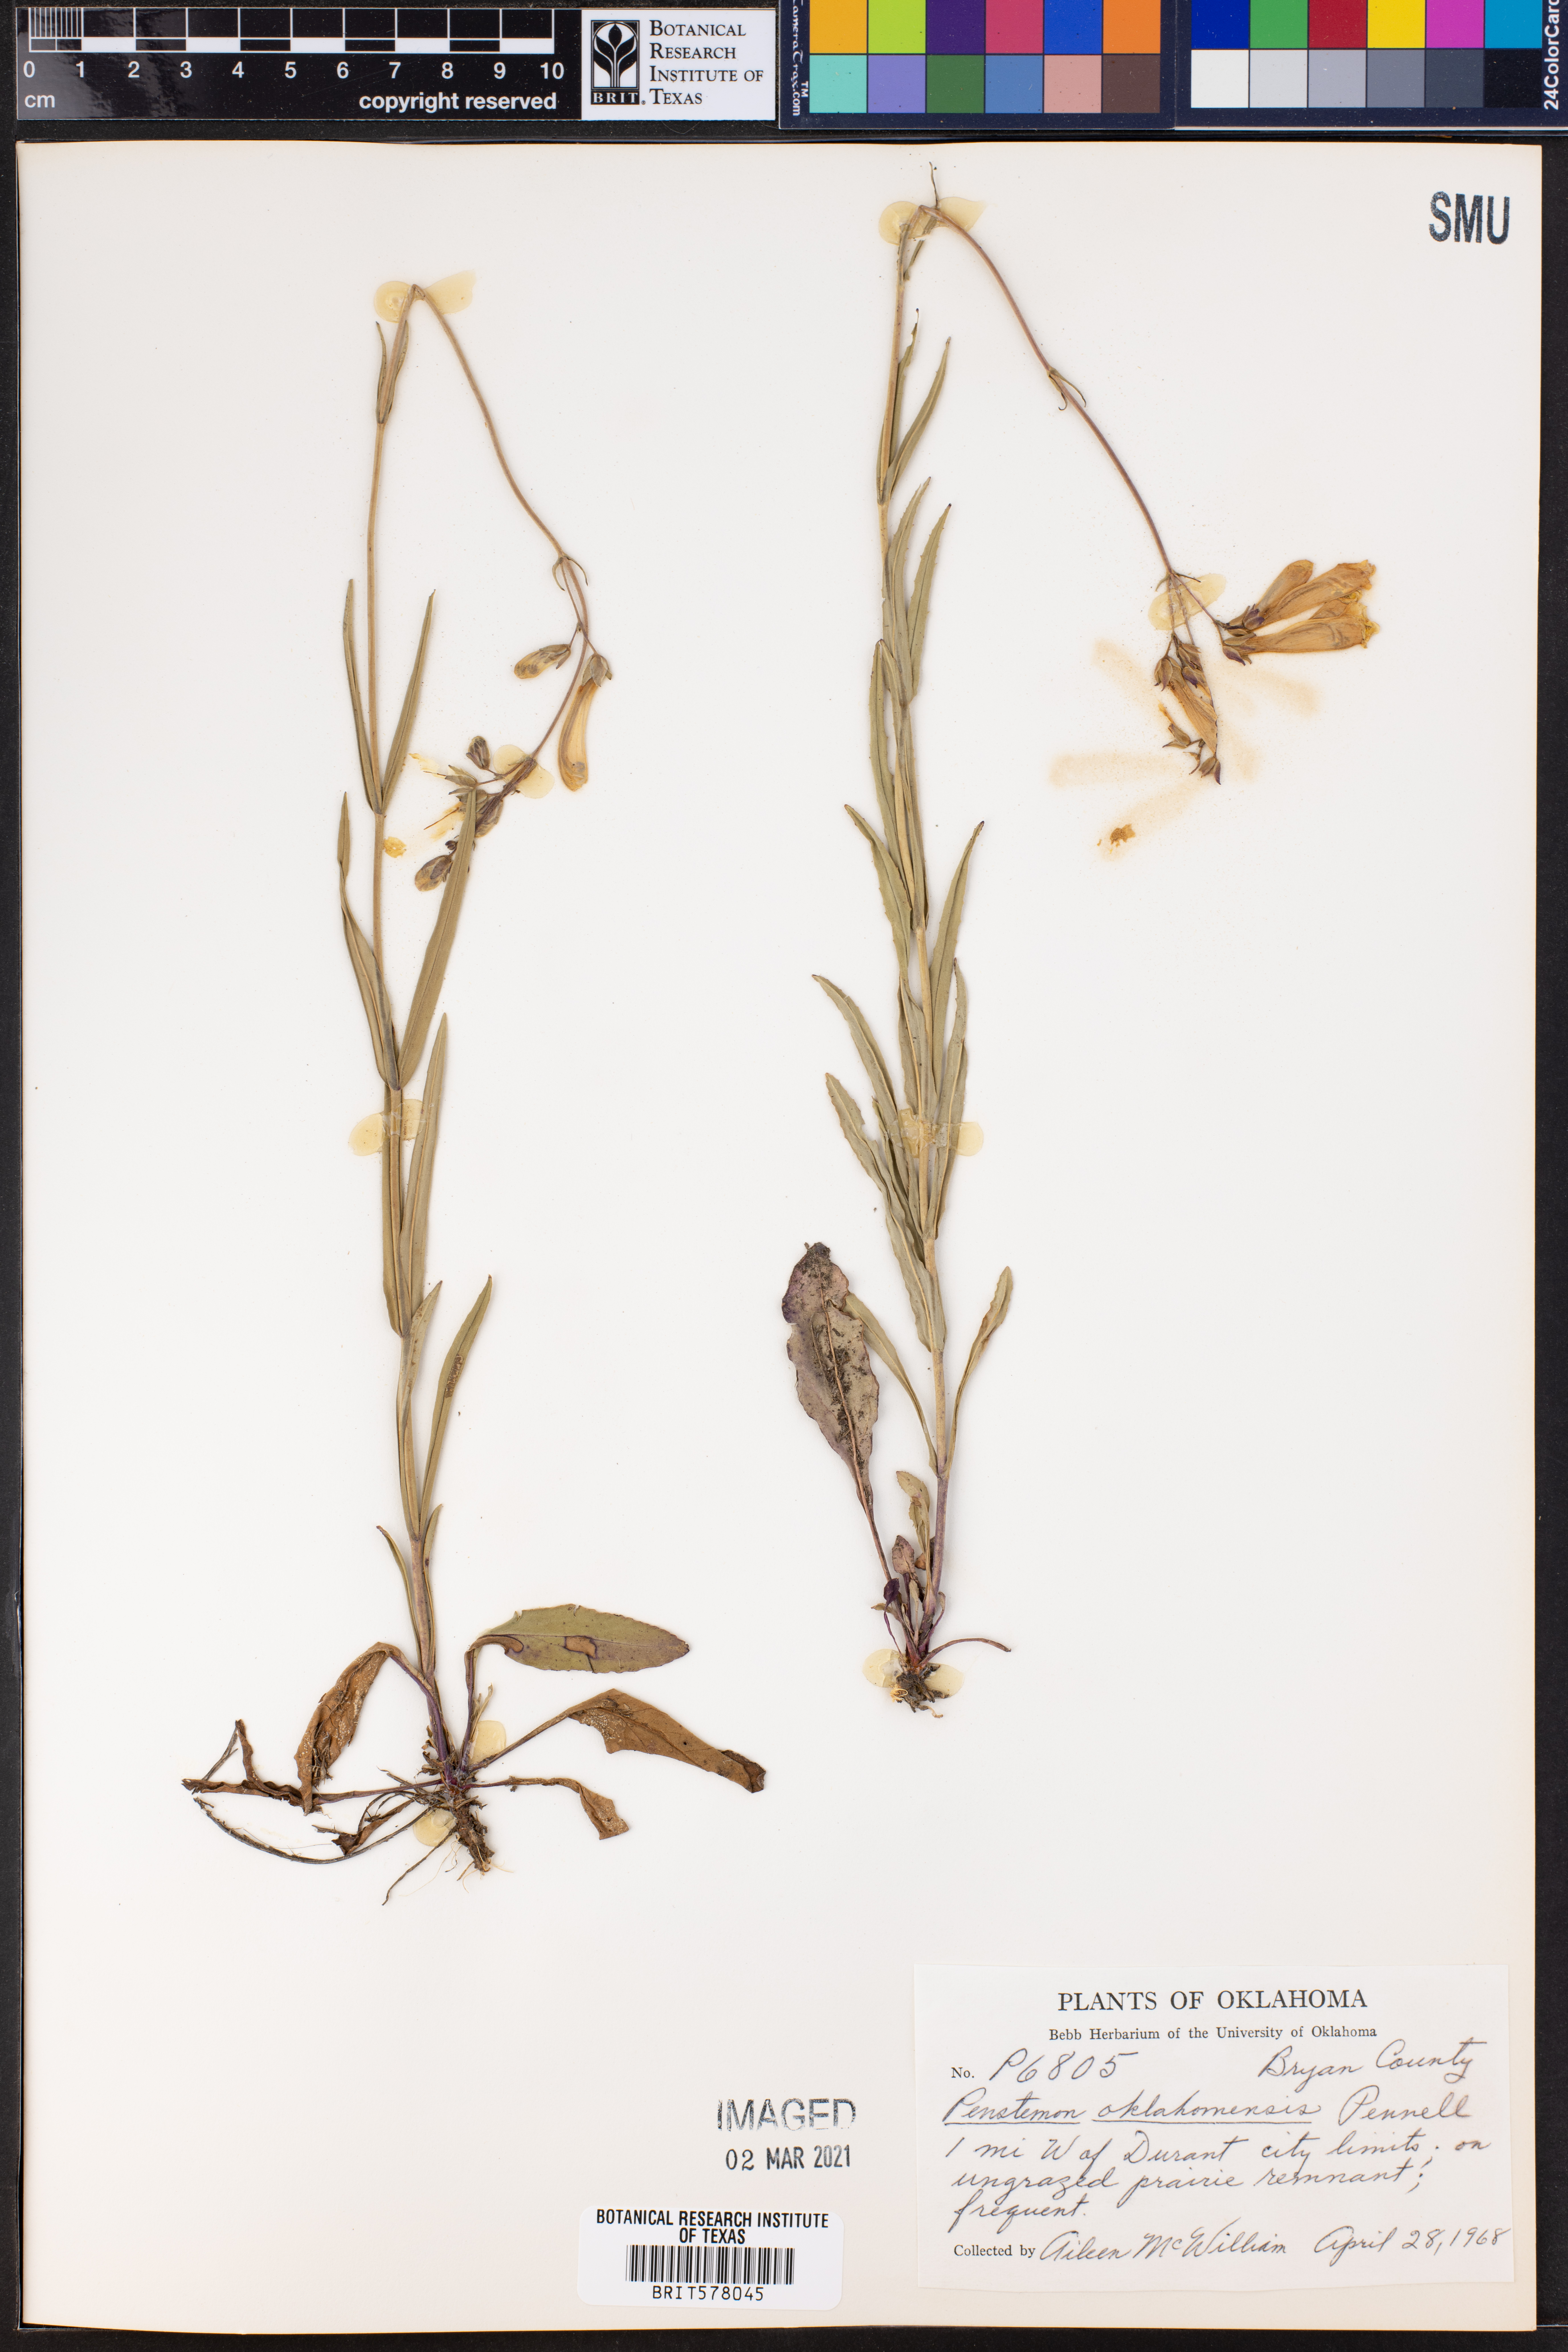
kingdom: Plantae
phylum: Tracheophyta
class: Magnoliopsida
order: Lamiales
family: Plantaginaceae
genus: Penstemon
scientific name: Penstemon oklahomensis
